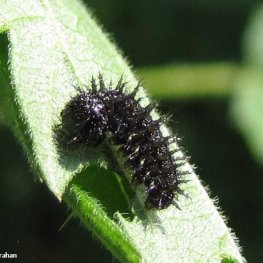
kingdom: Animalia
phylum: Arthropoda
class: Insecta
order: Lepidoptera
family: Nymphalidae
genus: Vanessa
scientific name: Vanessa atalanta
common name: Red Admiral
